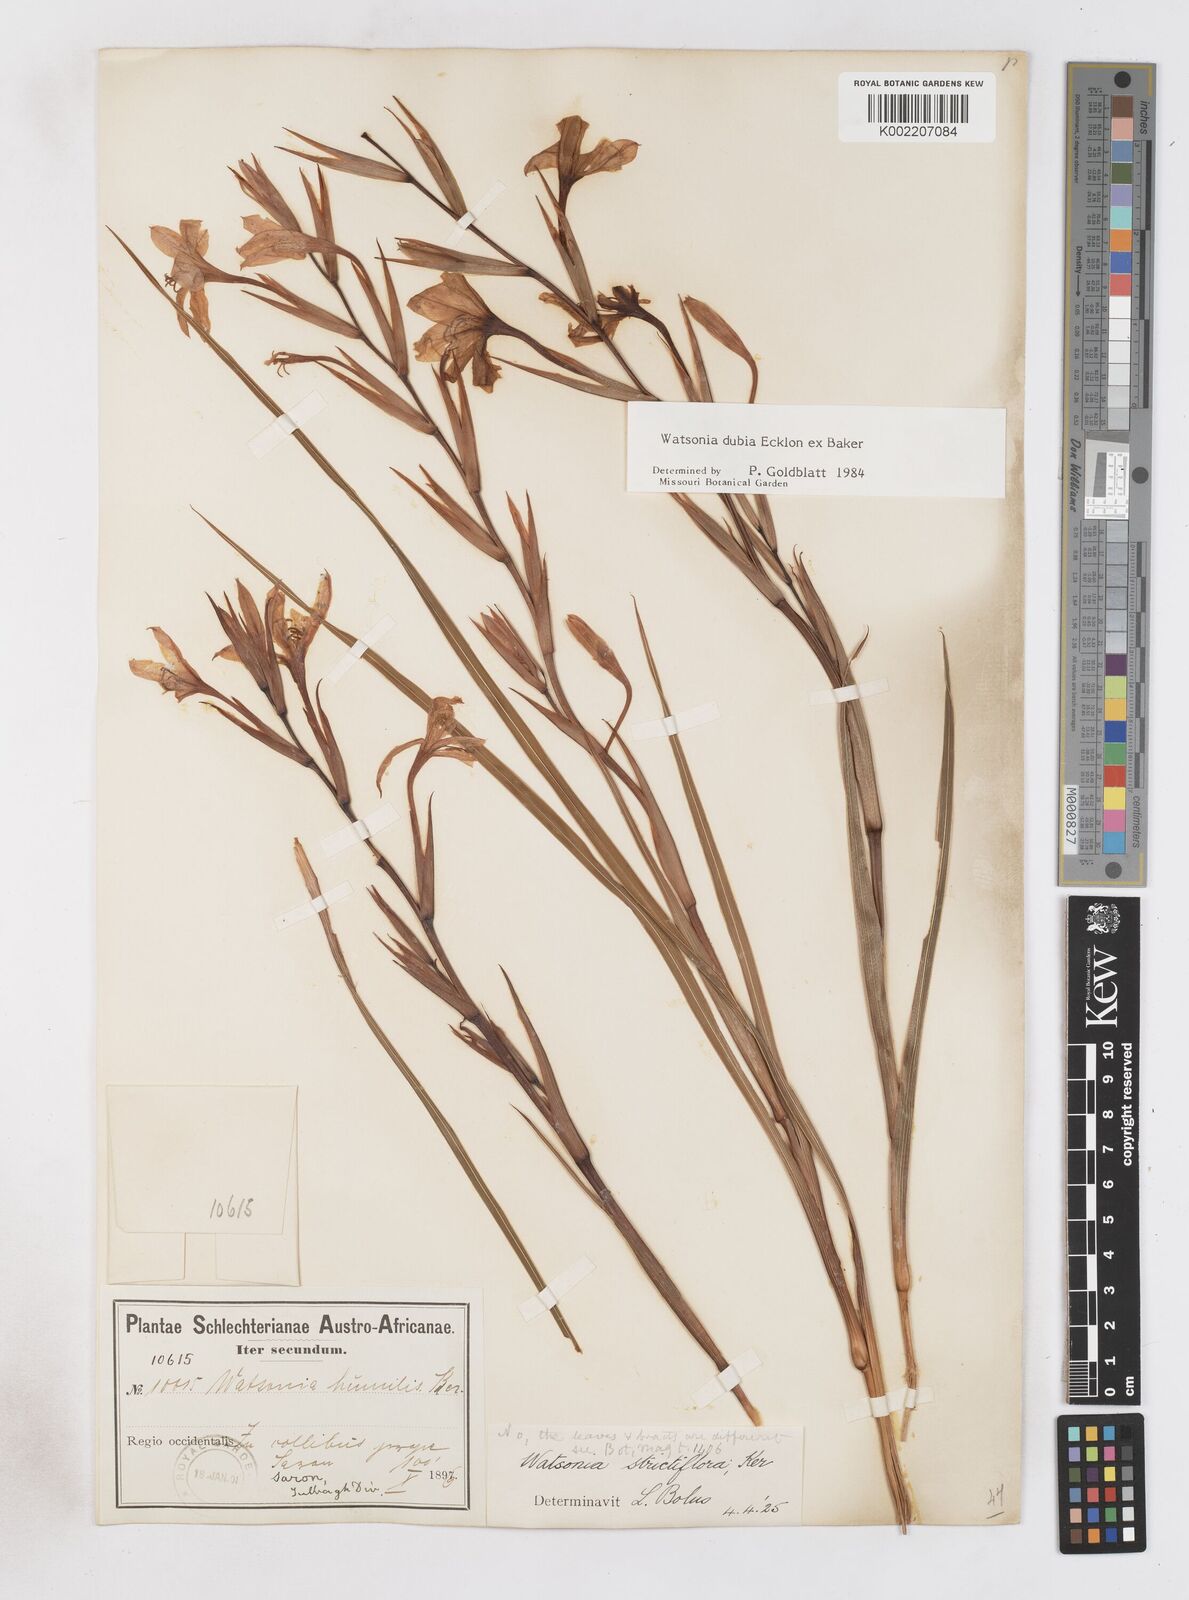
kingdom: Plantae
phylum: Tracheophyta
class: Liliopsida
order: Asparagales
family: Iridaceae
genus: Watsonia
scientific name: Watsonia dubia
